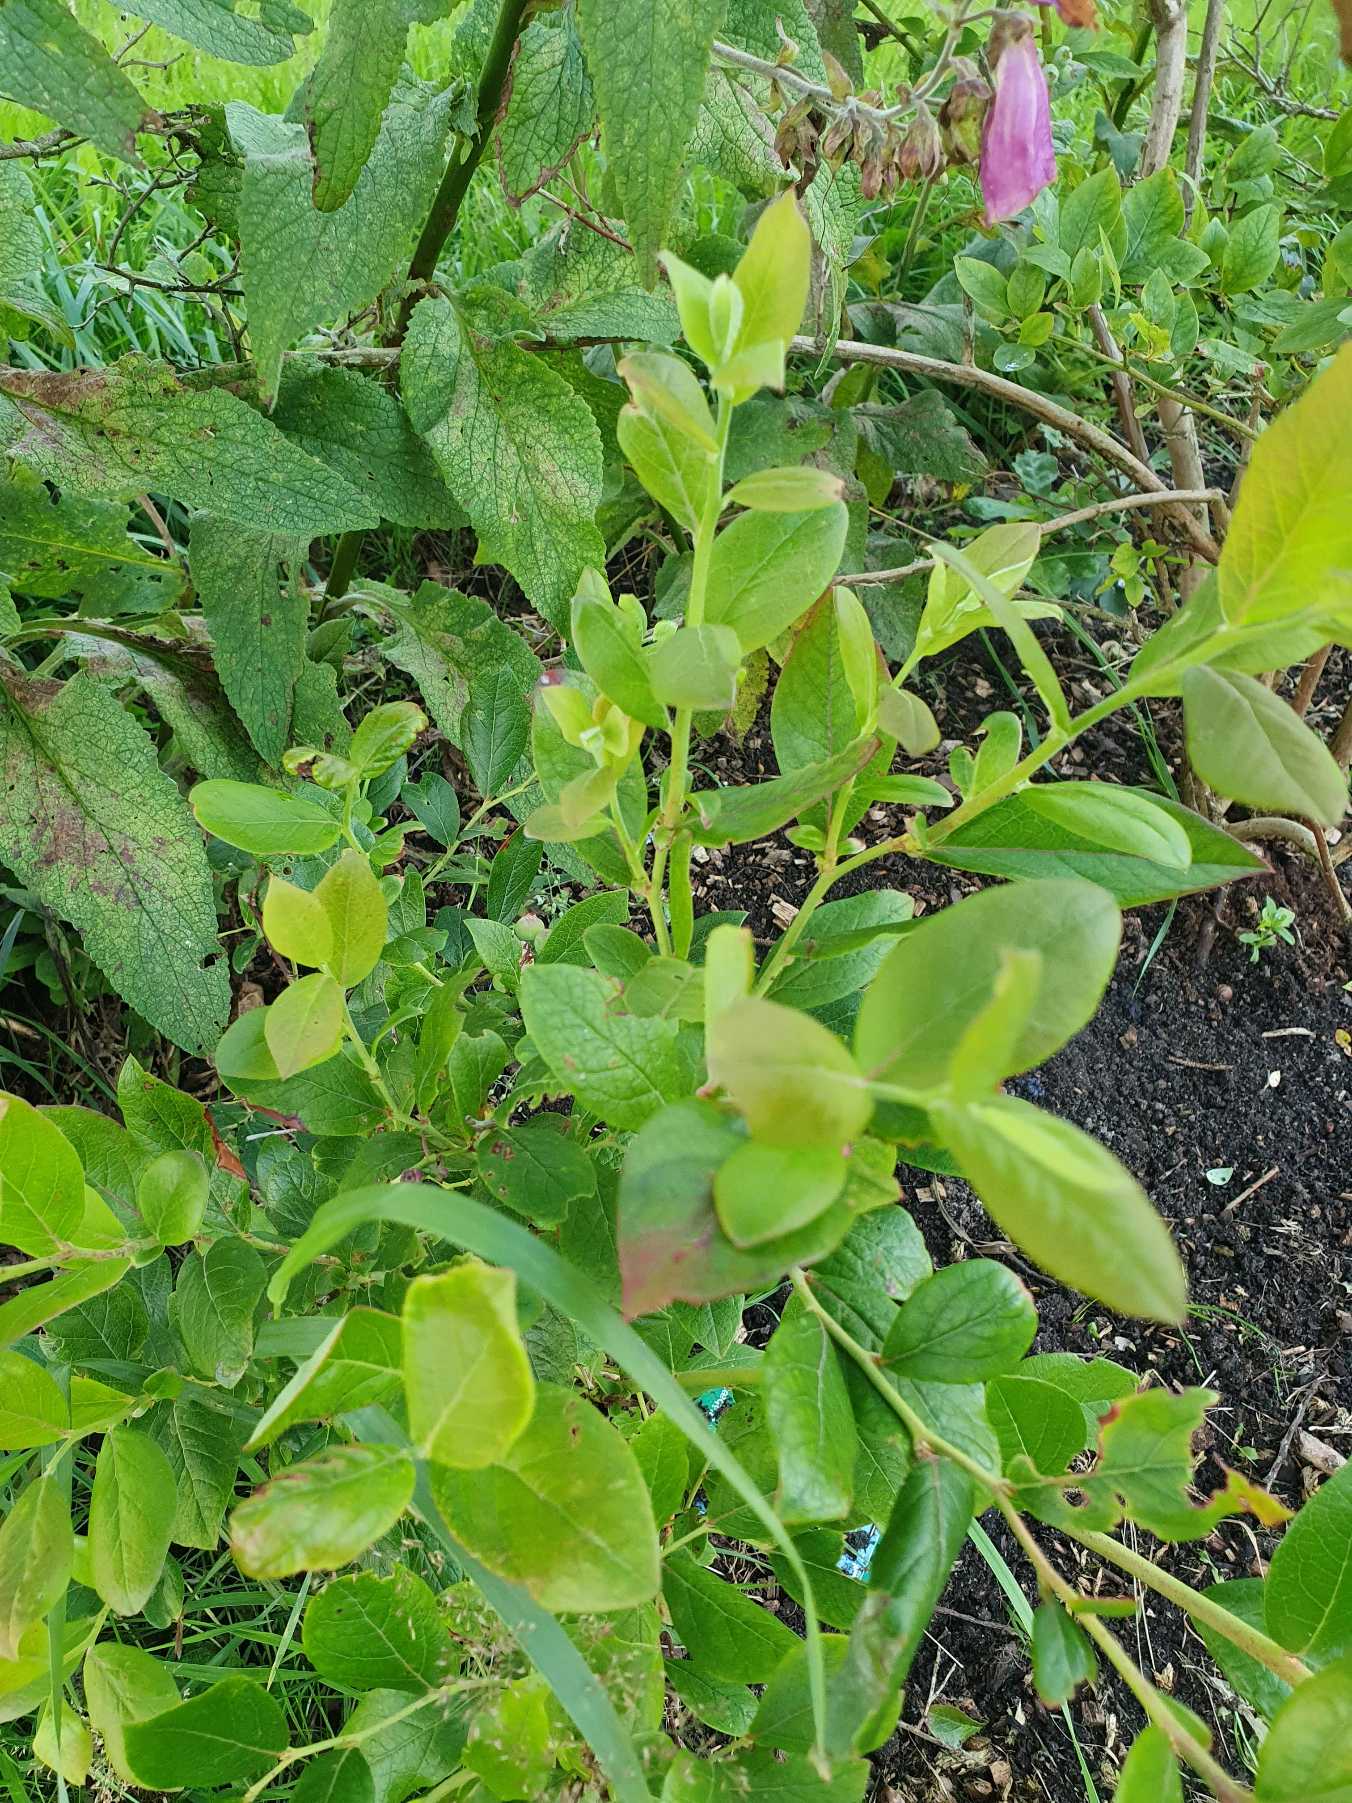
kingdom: Plantae
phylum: Tracheophyta
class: Magnoliopsida
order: Ericales
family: Ericaceae
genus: Vaccinium
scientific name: Vaccinium corymbosum
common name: Amerikansk blåbær
